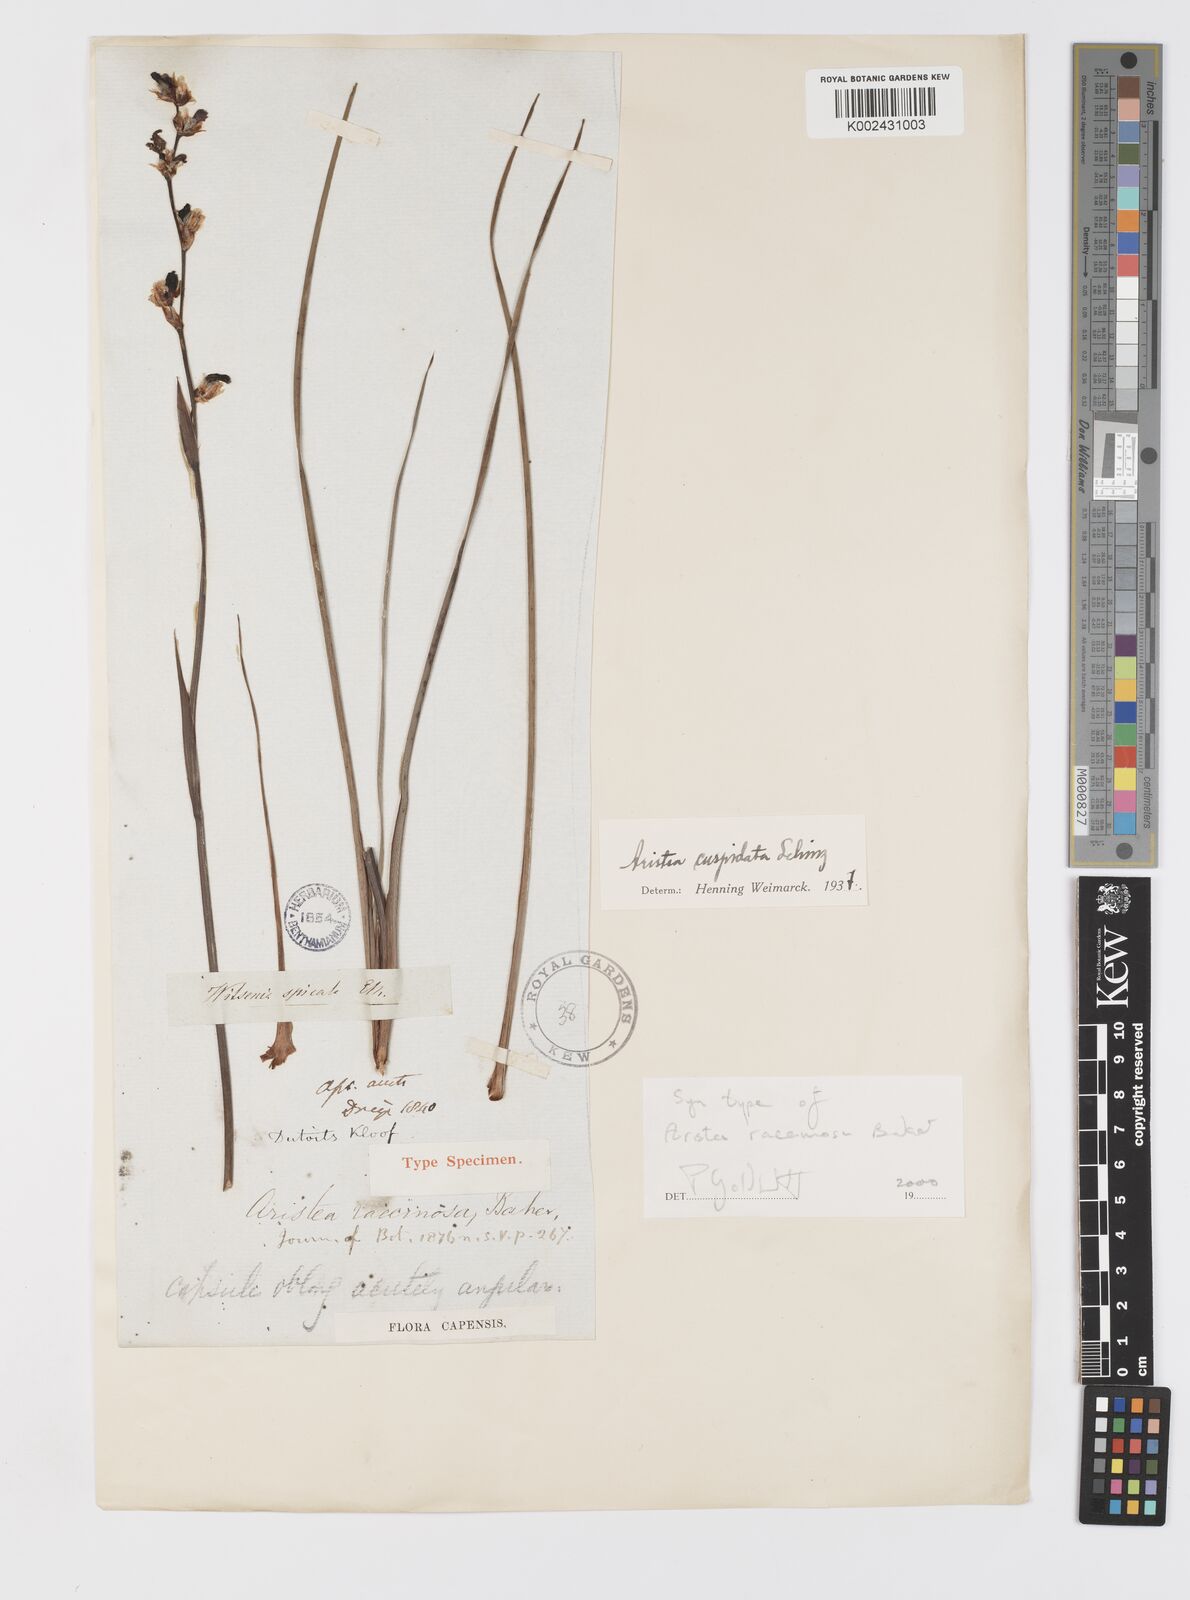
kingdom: Plantae
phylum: Tracheophyta
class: Liliopsida
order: Asparagales
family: Iridaceae
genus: Aristea
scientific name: Aristea racemosa
